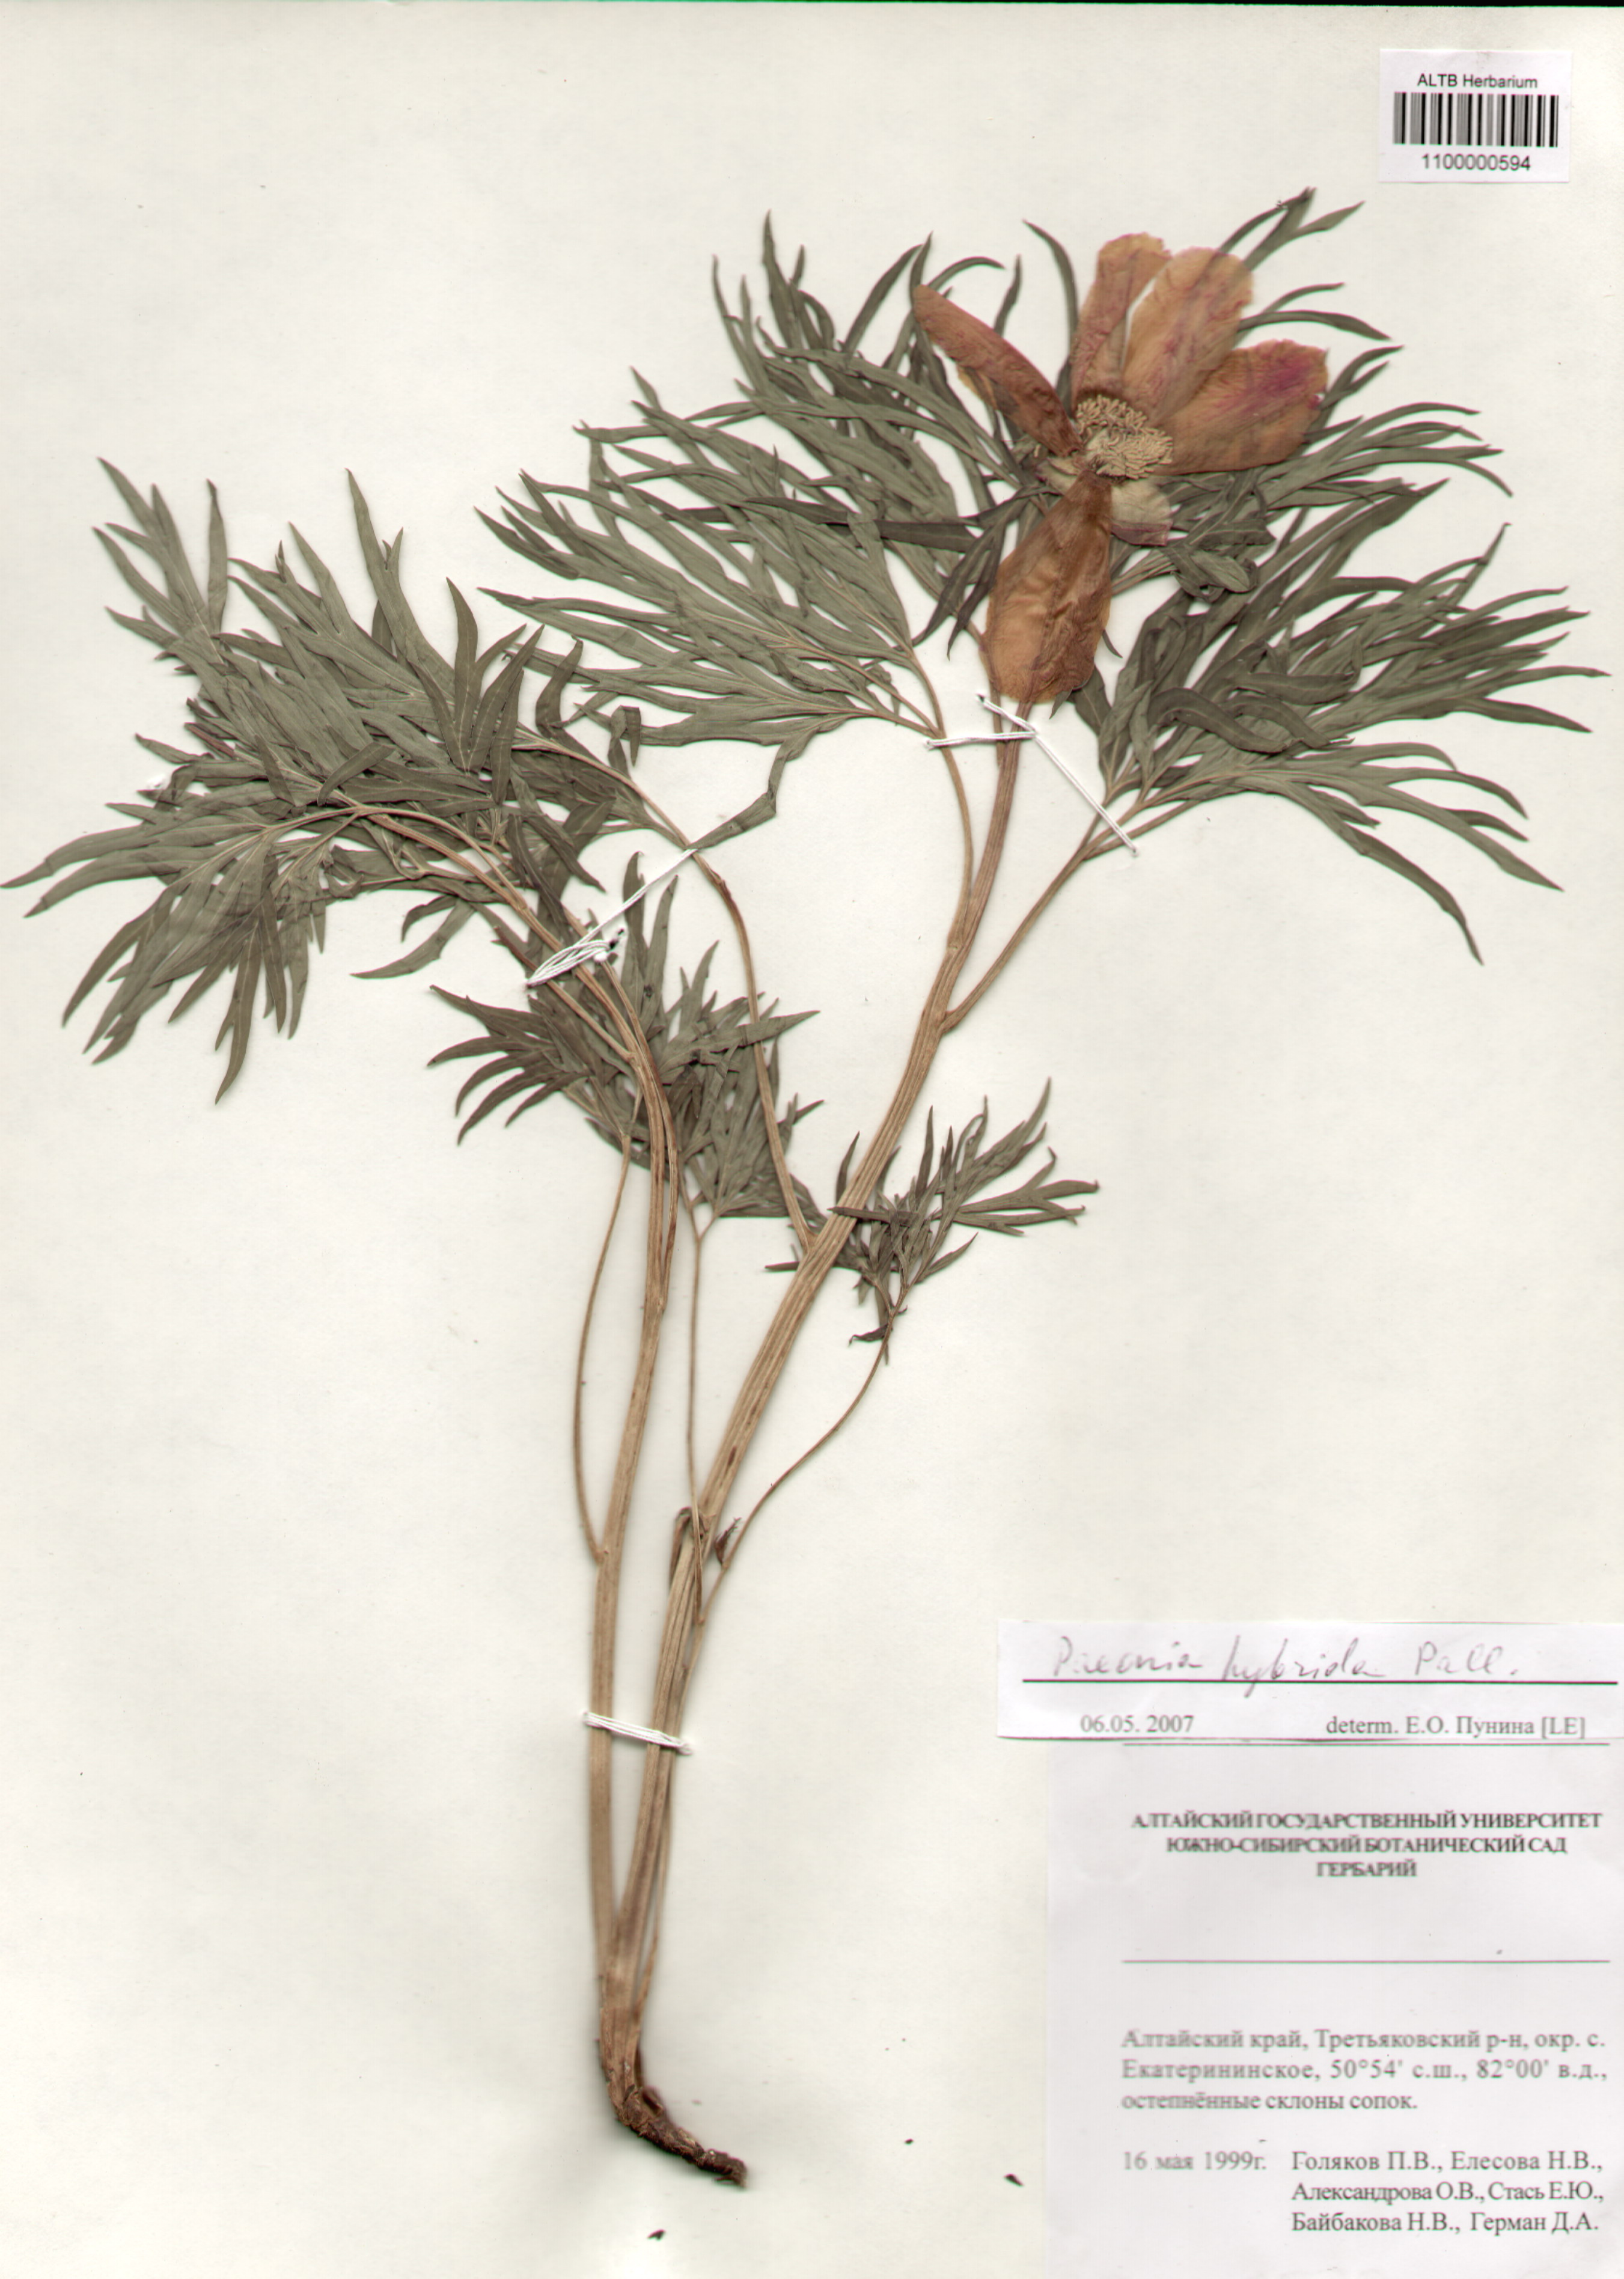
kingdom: Plantae
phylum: Tracheophyta
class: Magnoliopsida
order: Saxifragales
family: Paeoniaceae
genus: Paeonia
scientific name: Paeonia
